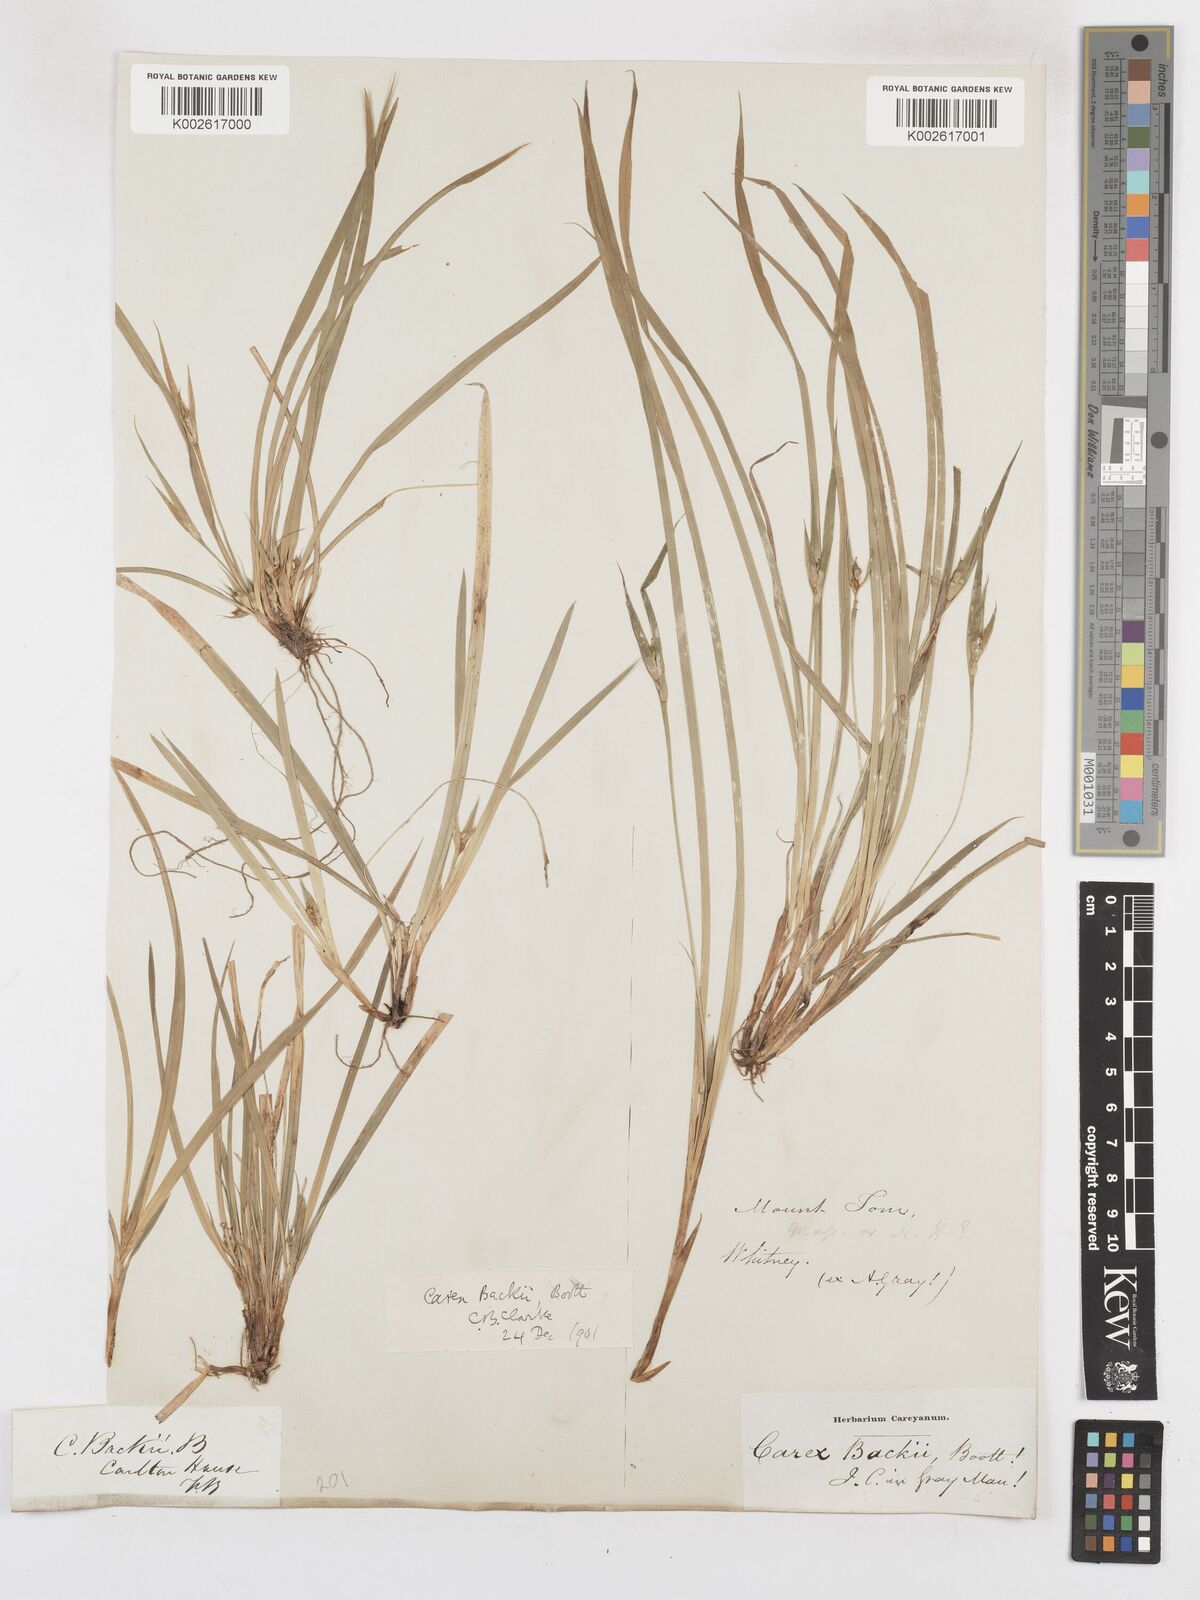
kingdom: Plantae
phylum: Tracheophyta
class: Liliopsida
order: Poales
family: Cyperaceae
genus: Carex
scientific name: Carex backii
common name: Back's sedge
